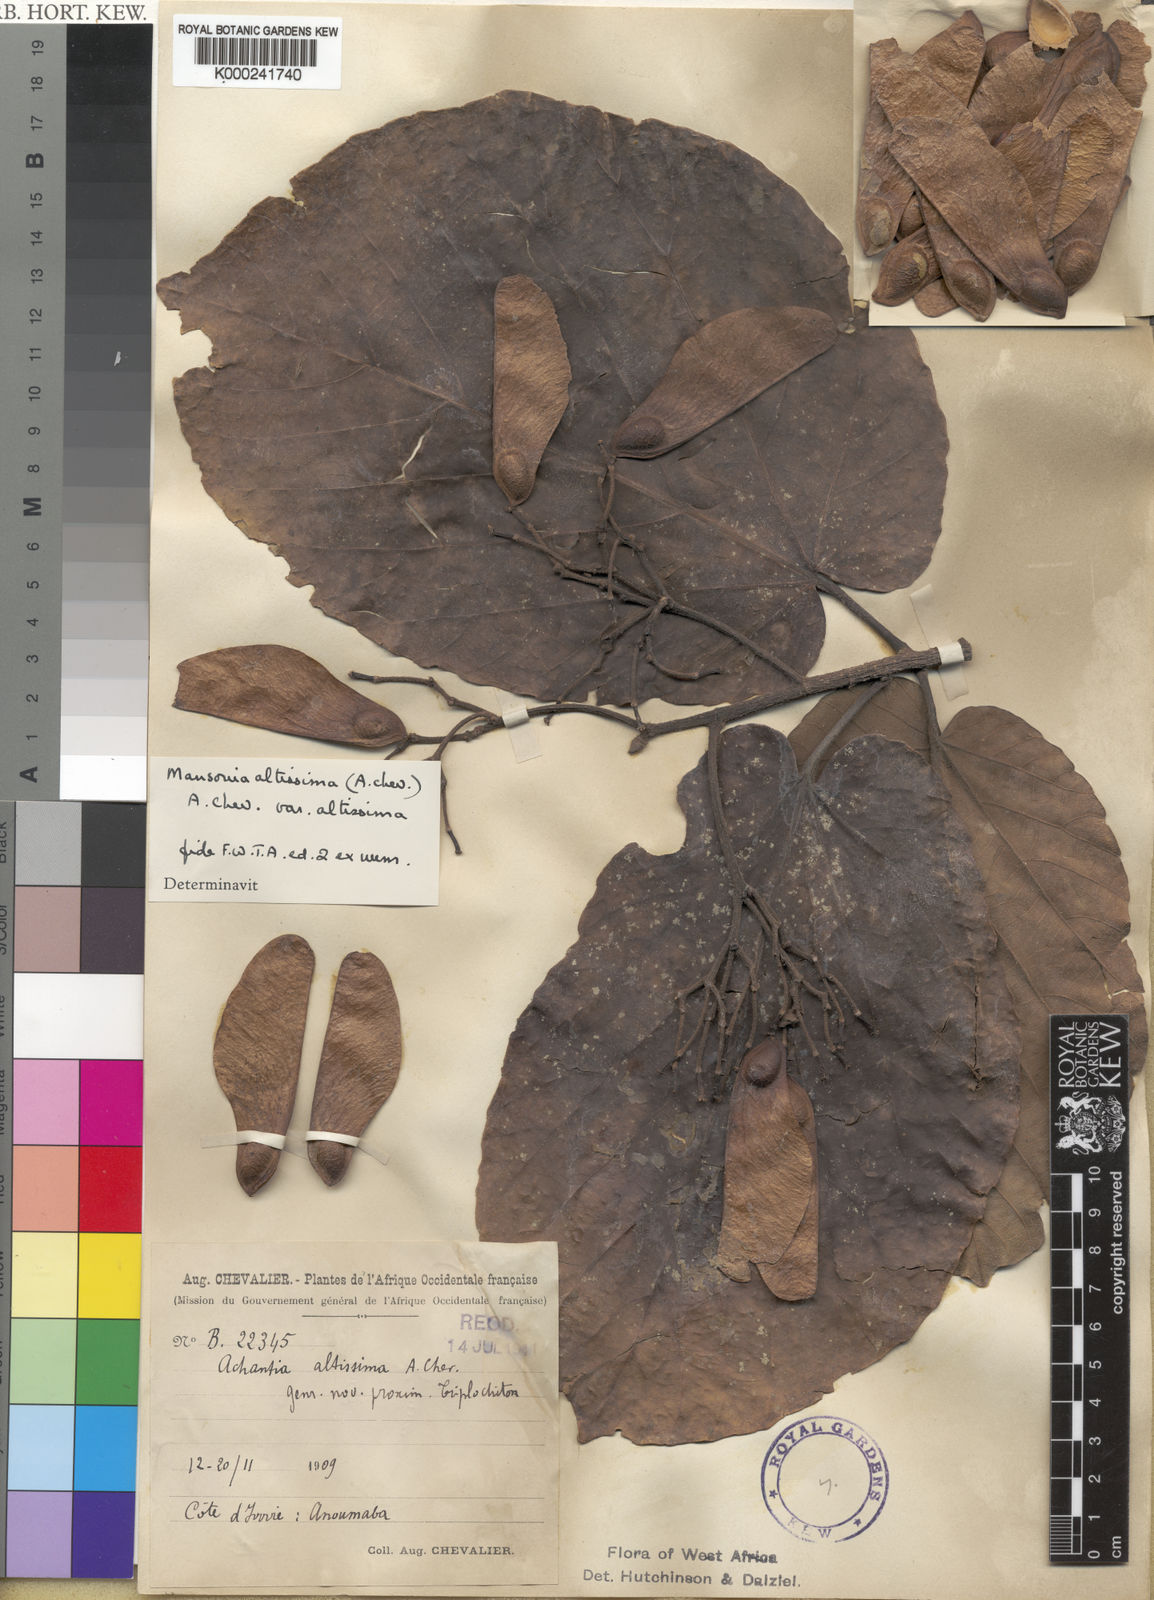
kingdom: Plantae
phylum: Tracheophyta
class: Magnoliopsida
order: Malvales
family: Malvaceae
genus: Mansonia
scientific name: Mansonia altissima
